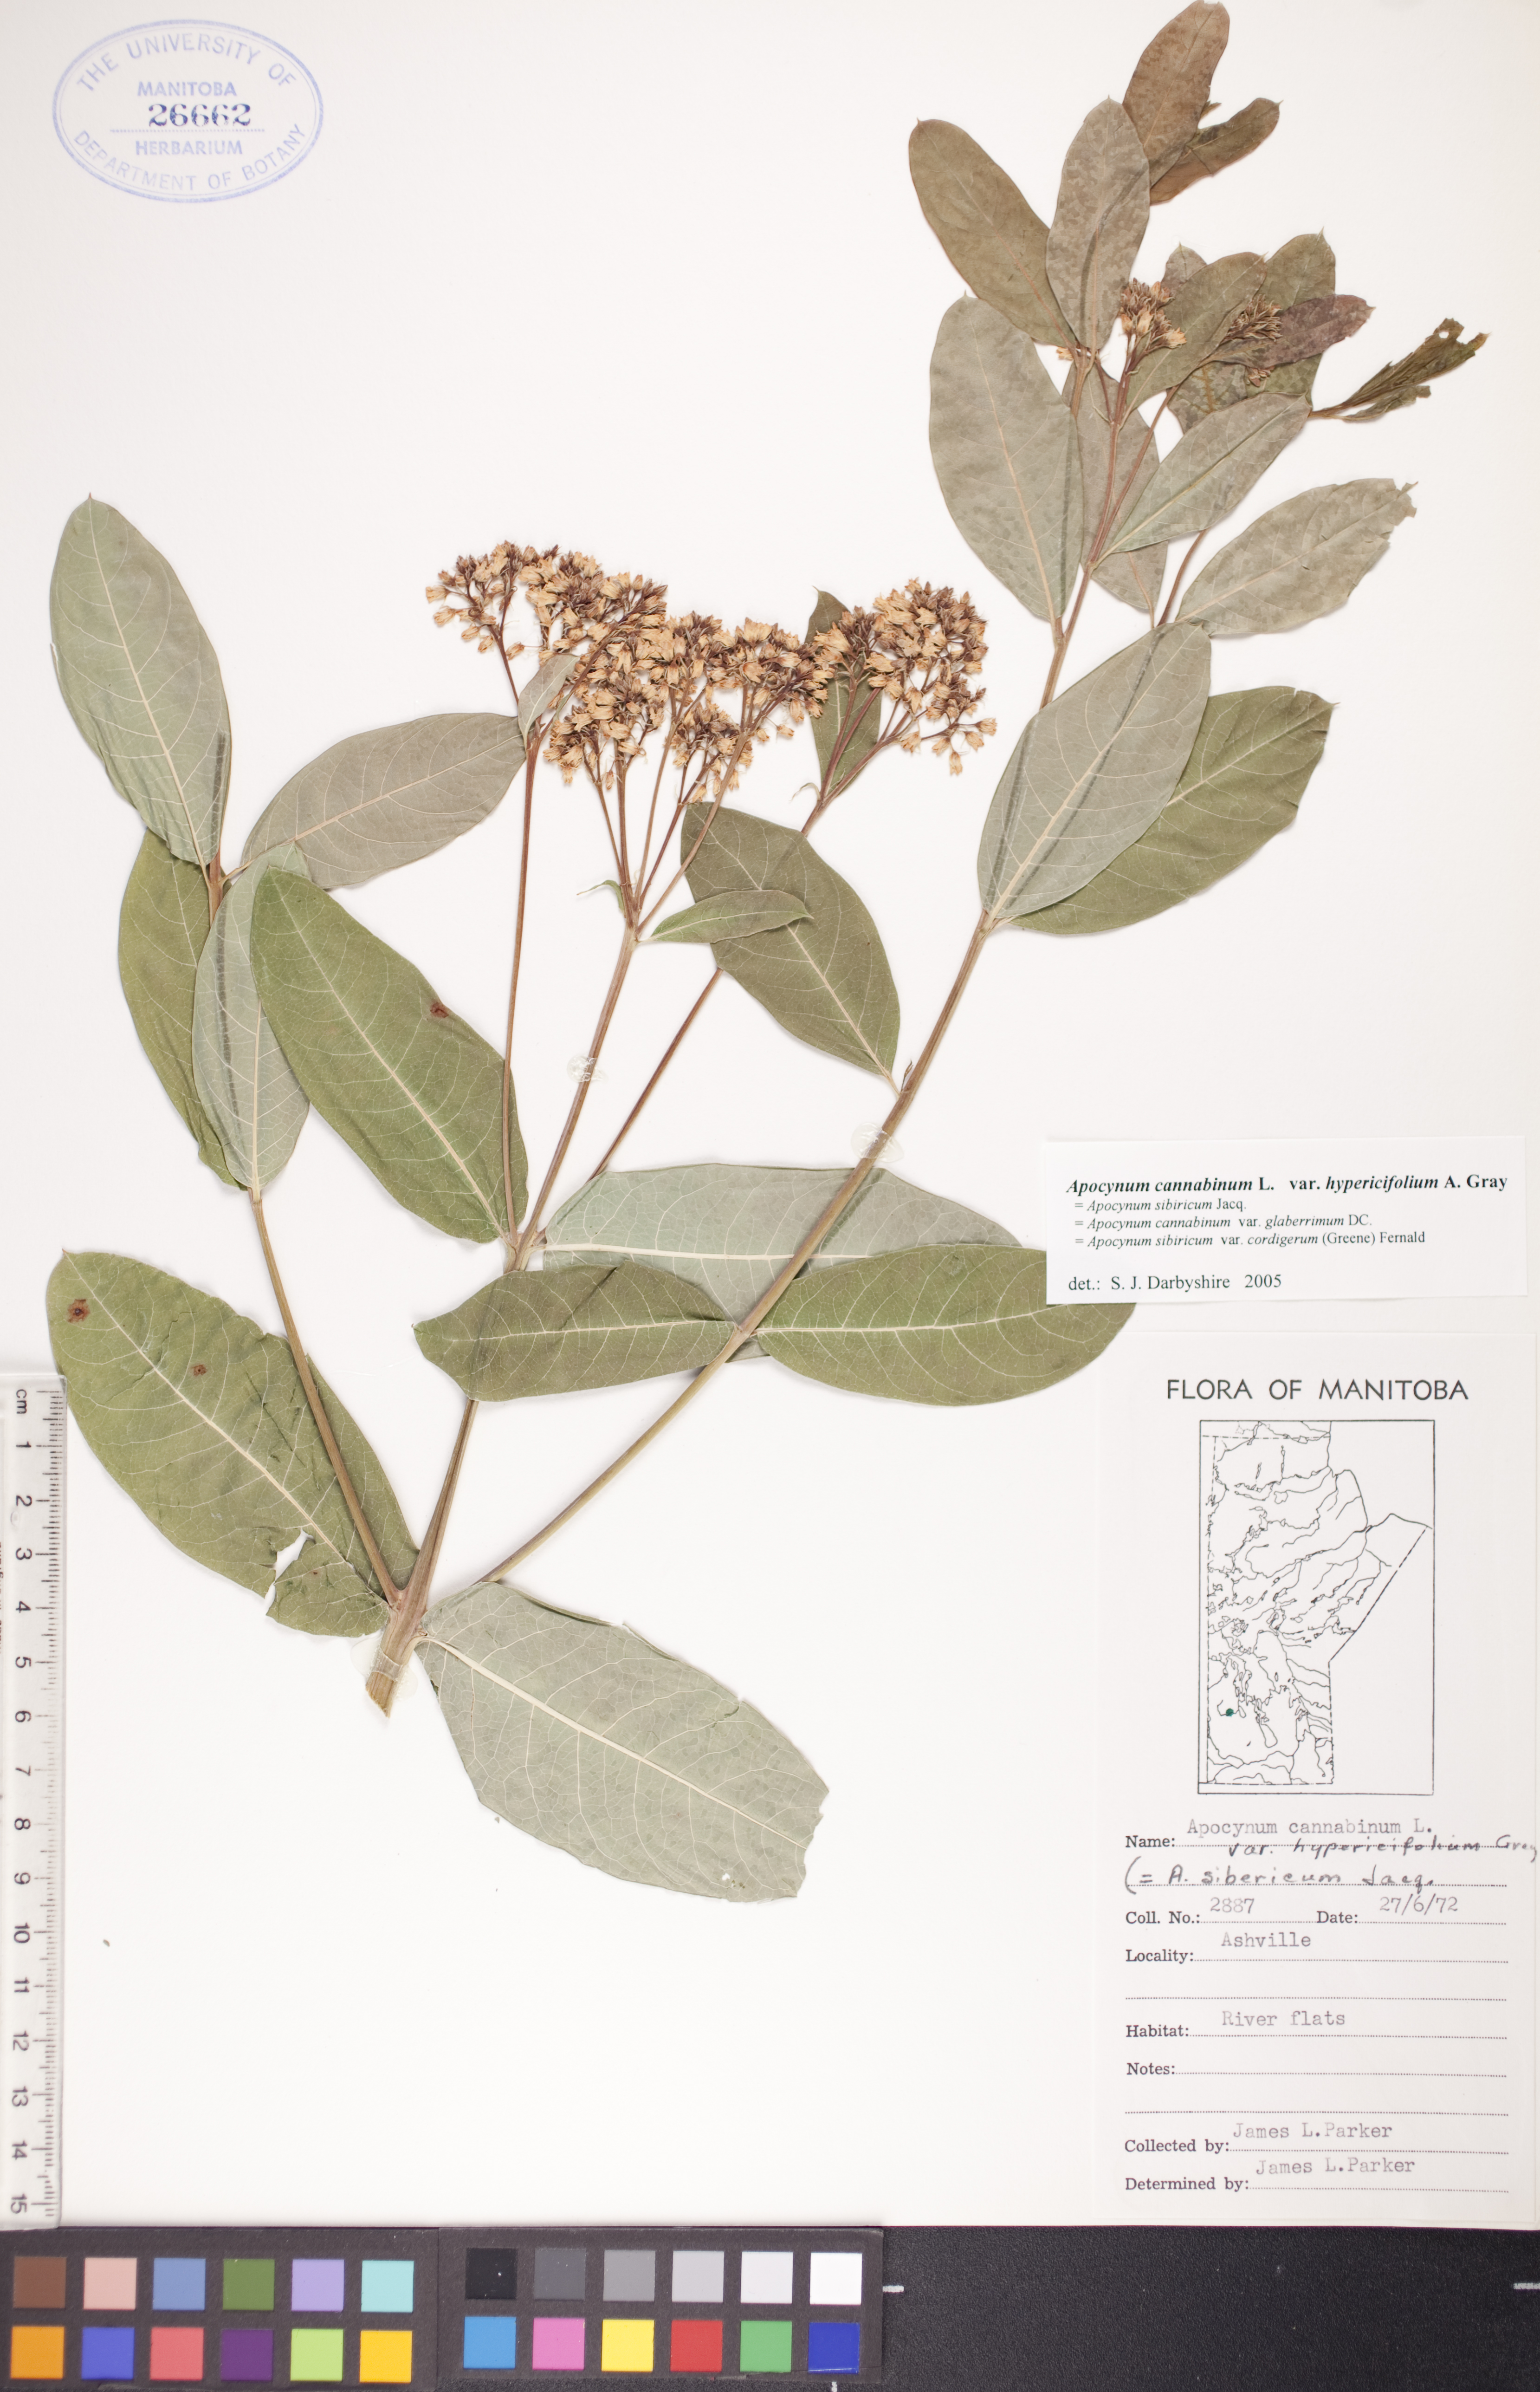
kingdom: Plantae
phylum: Tracheophyta
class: Magnoliopsida
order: Gentianales
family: Apocynaceae
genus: Apocynum
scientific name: Apocynum cannabinum
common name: Hemp dogbane
